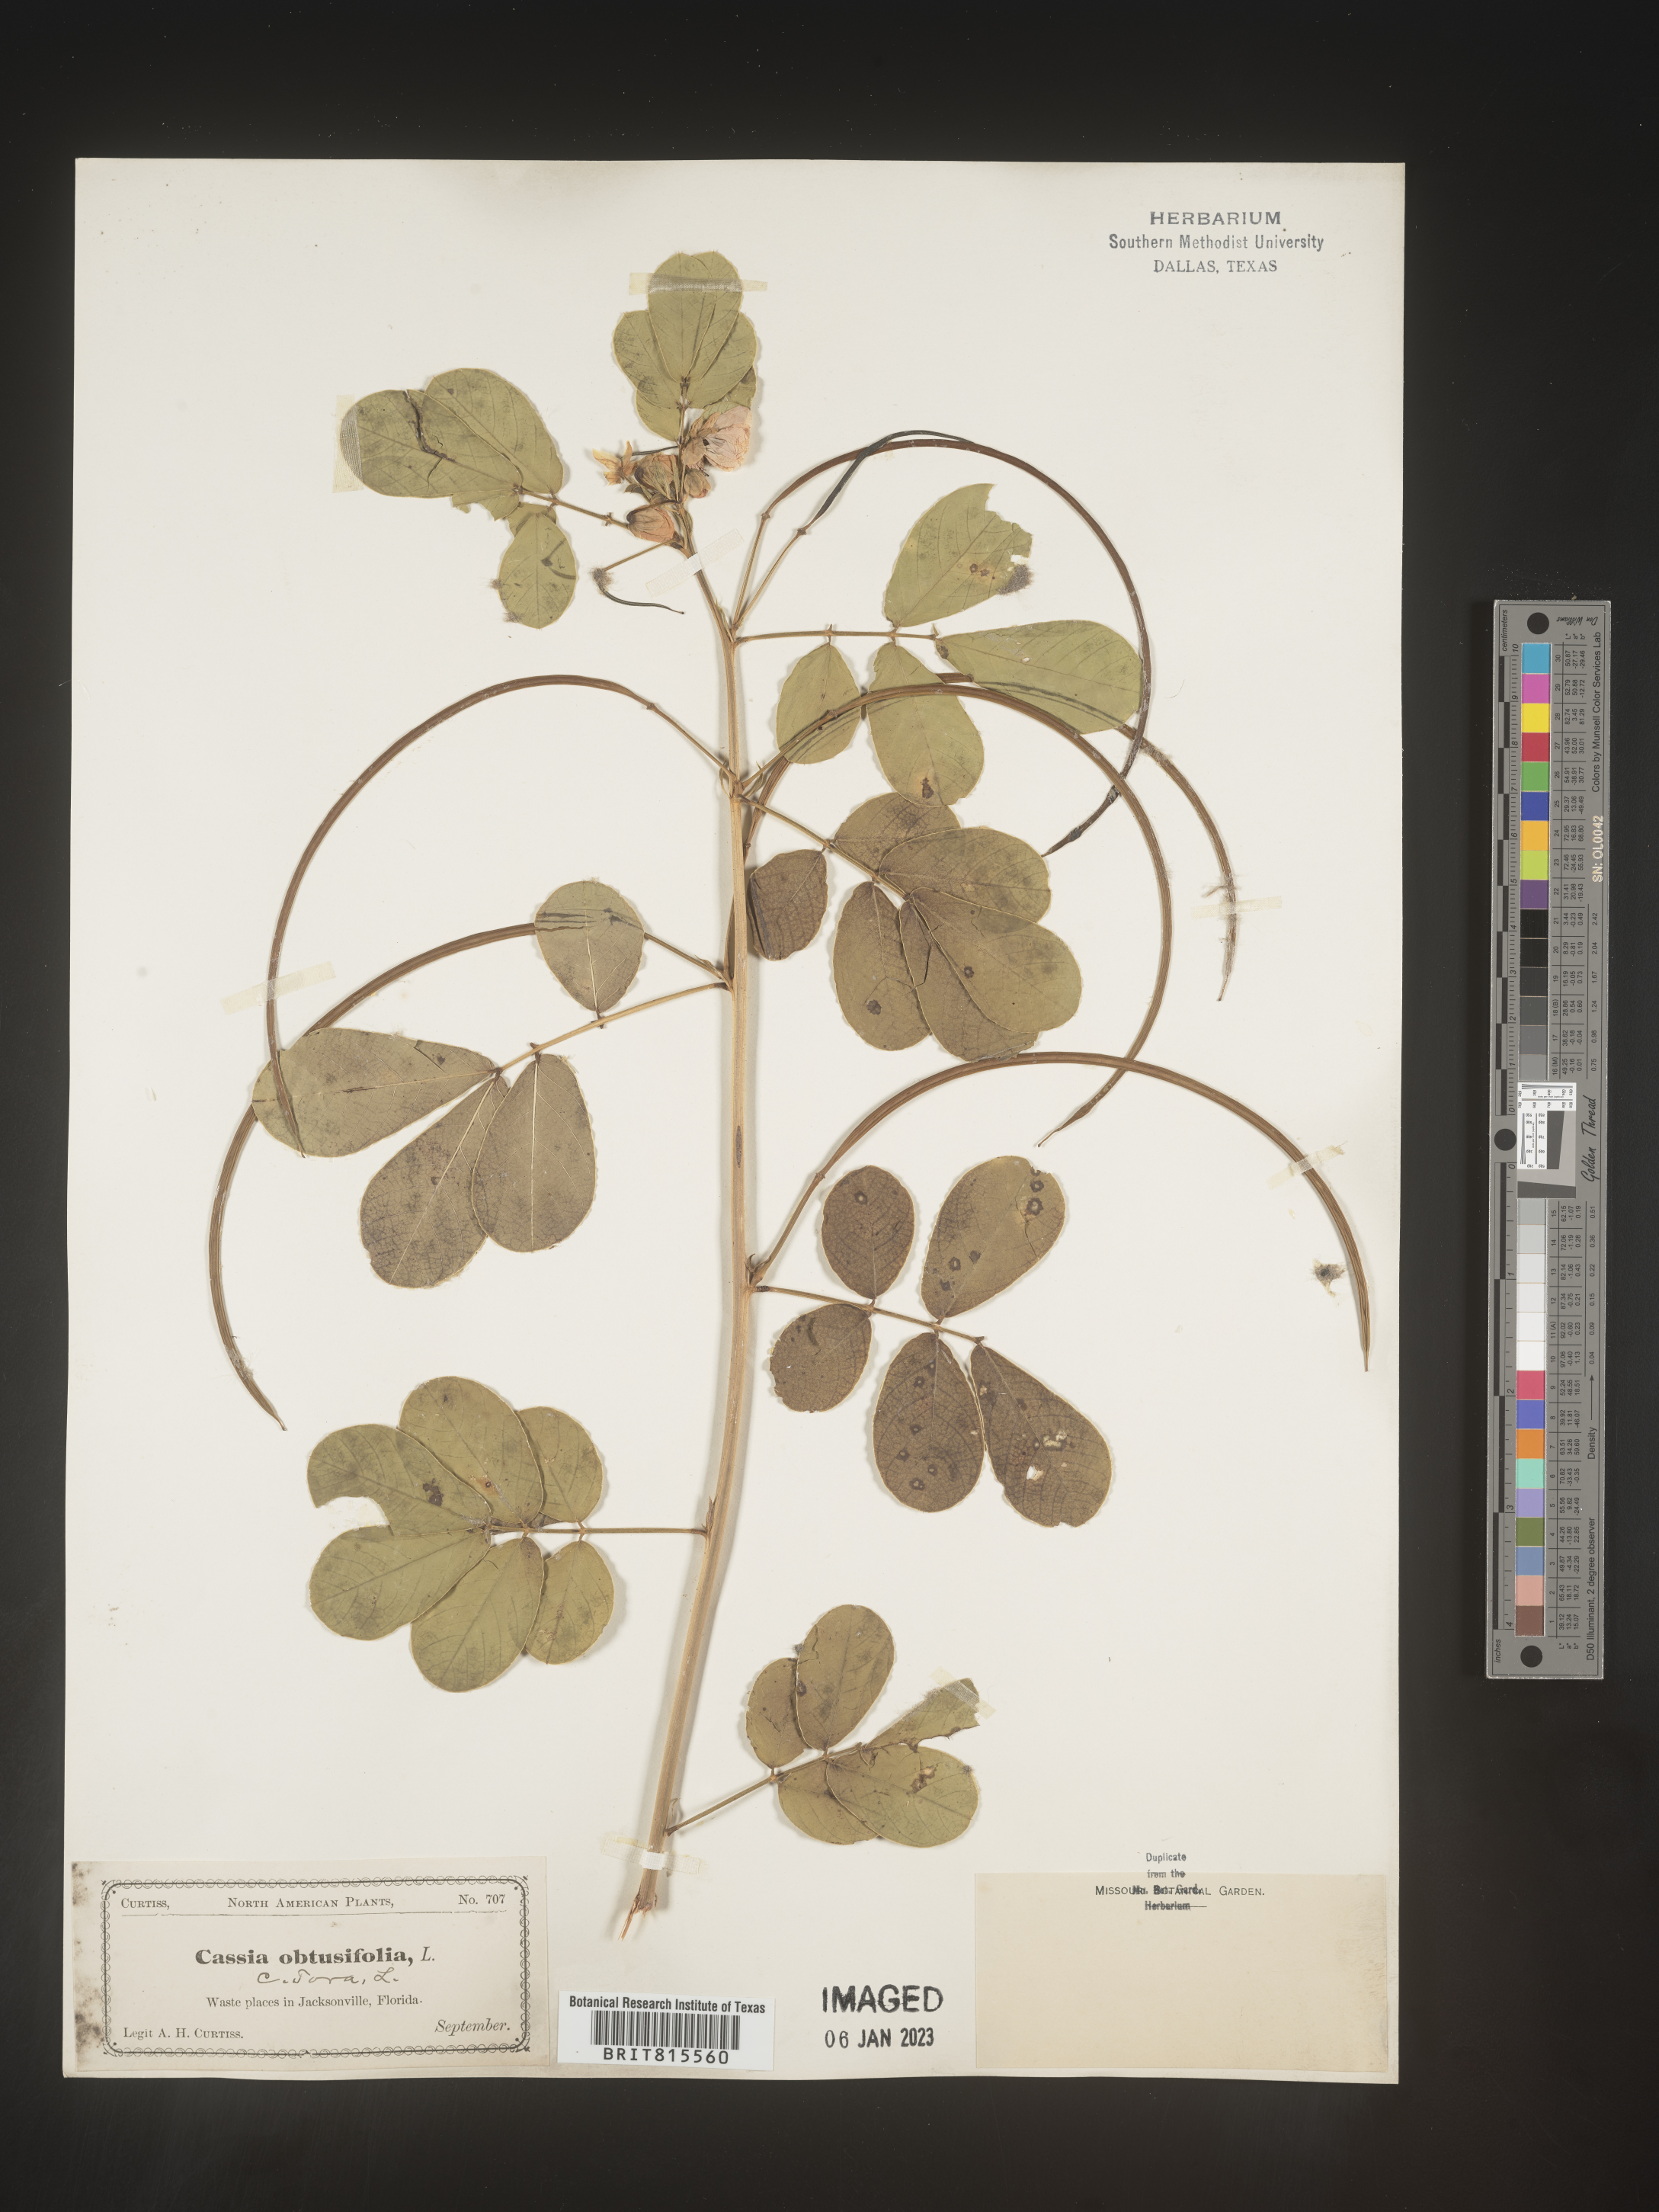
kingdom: Plantae
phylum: Tracheophyta
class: Magnoliopsida
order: Fabales
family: Fabaceae
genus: Senna
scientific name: Senna tora
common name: Sickle senna
